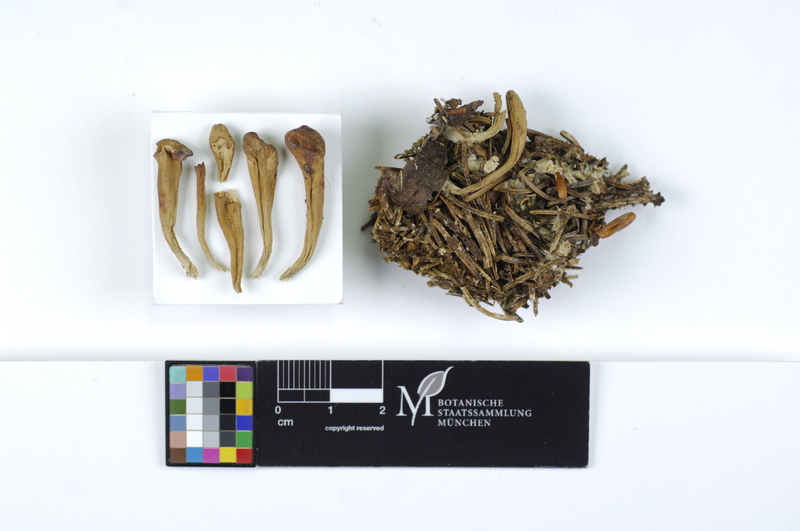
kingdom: Fungi
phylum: Basidiomycota
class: Agaricomycetes
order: Gomphales
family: Clavariadelphaceae
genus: Clavariadelphus
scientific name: Clavariadelphus ligula
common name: Ochre club
